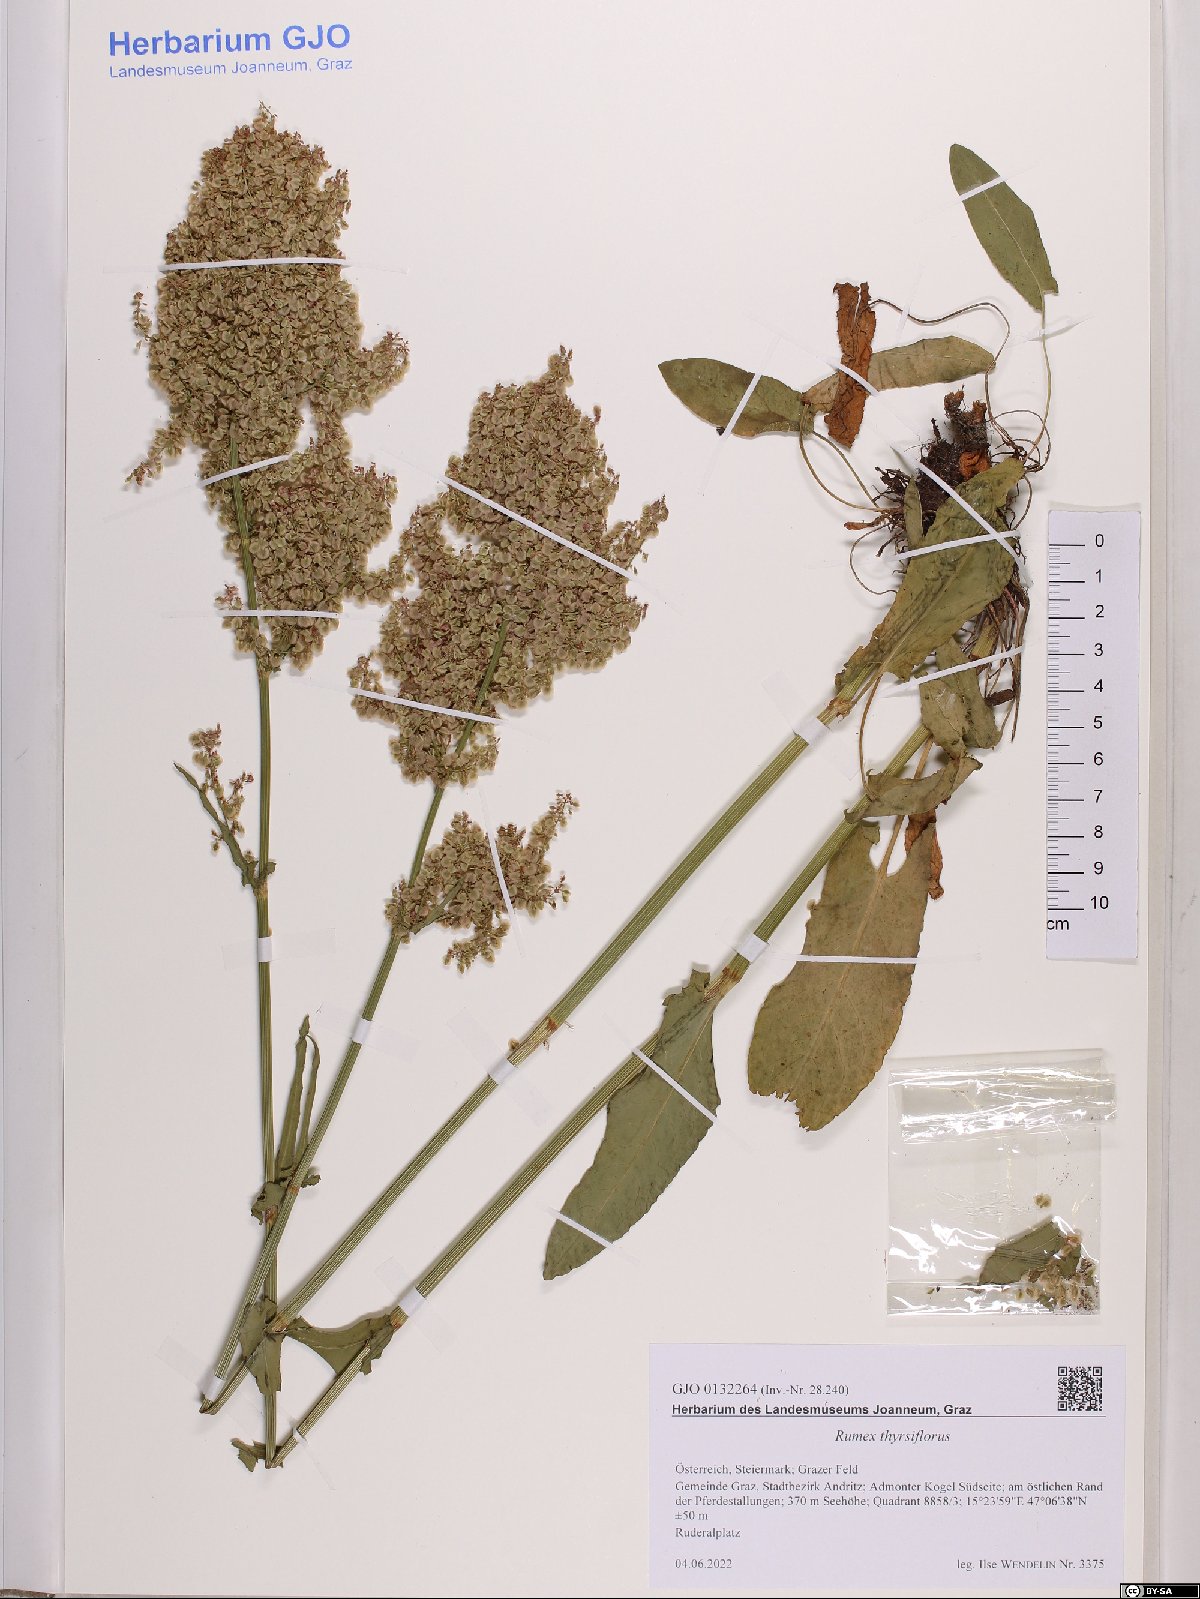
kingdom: Plantae
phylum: Tracheophyta
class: Magnoliopsida
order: Caryophyllales
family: Polygonaceae
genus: Rumex
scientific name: Rumex thyrsiflorus
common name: Garden sorrel
